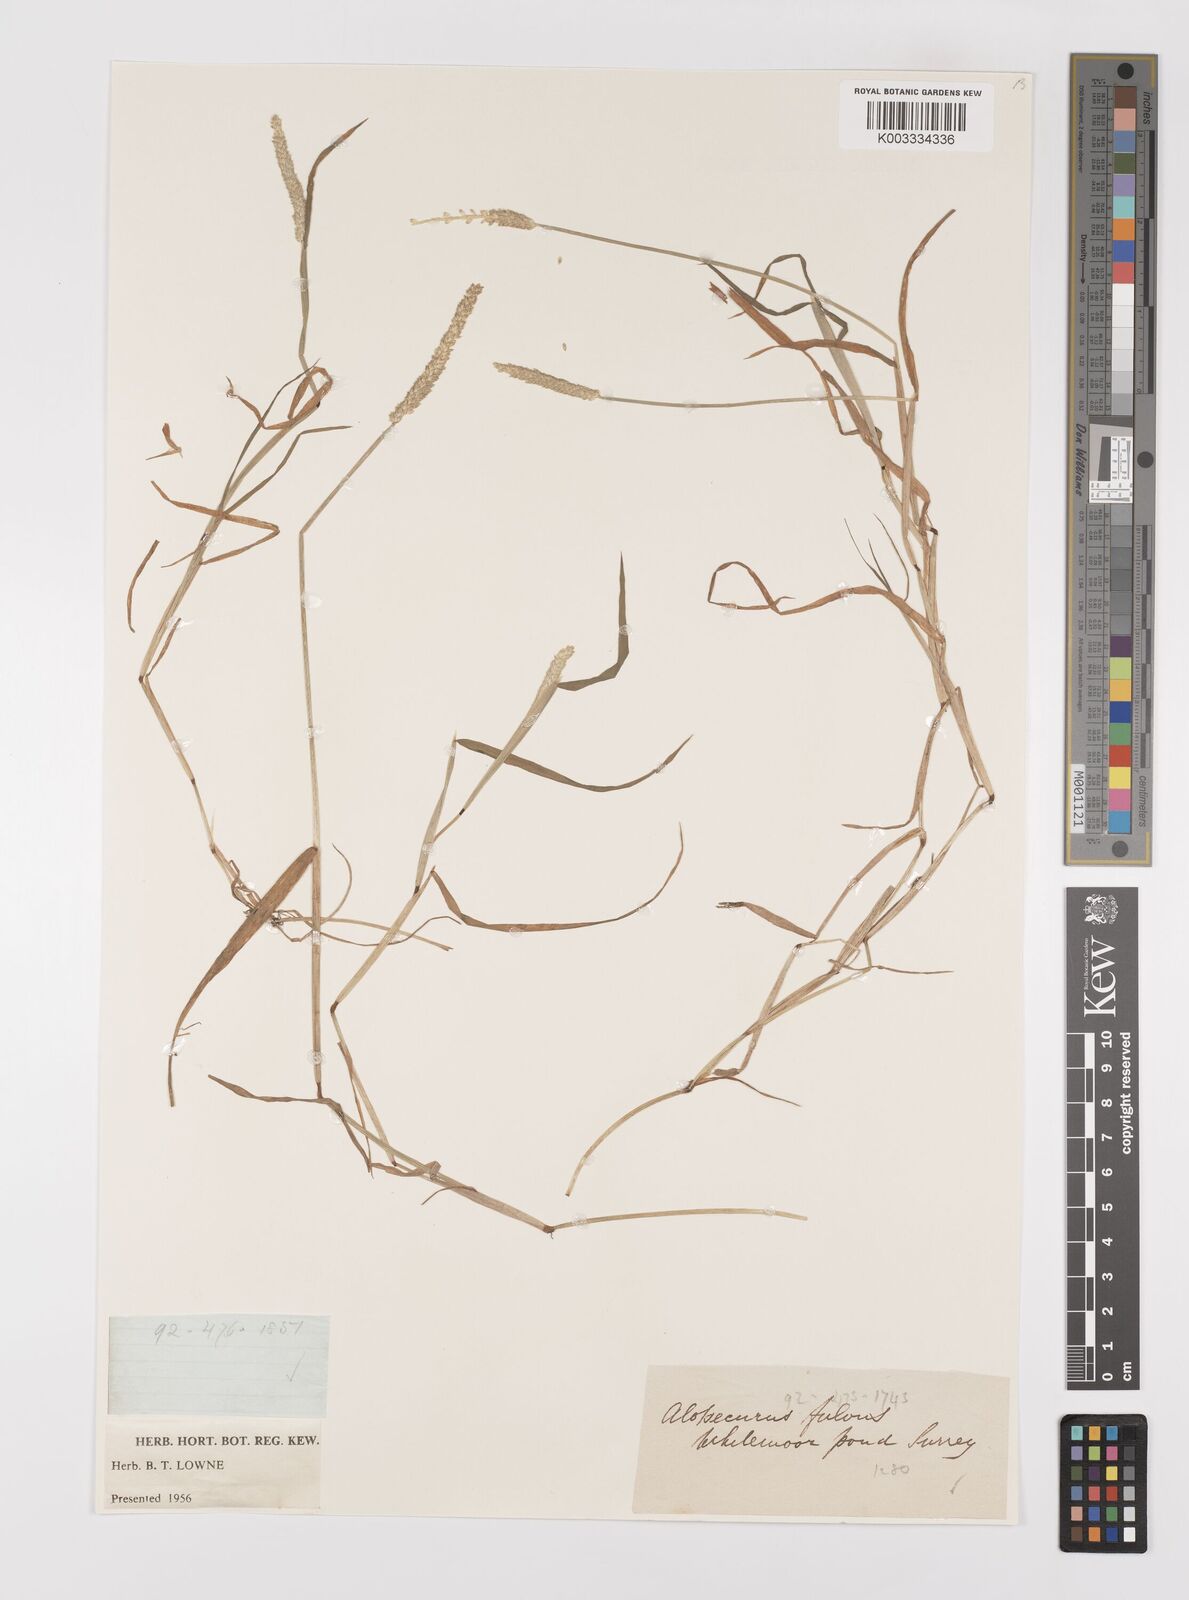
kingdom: Plantae
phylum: Tracheophyta
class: Liliopsida
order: Poales
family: Poaceae
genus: Alopecurus
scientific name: Alopecurus aequalis
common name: Orange foxtail
